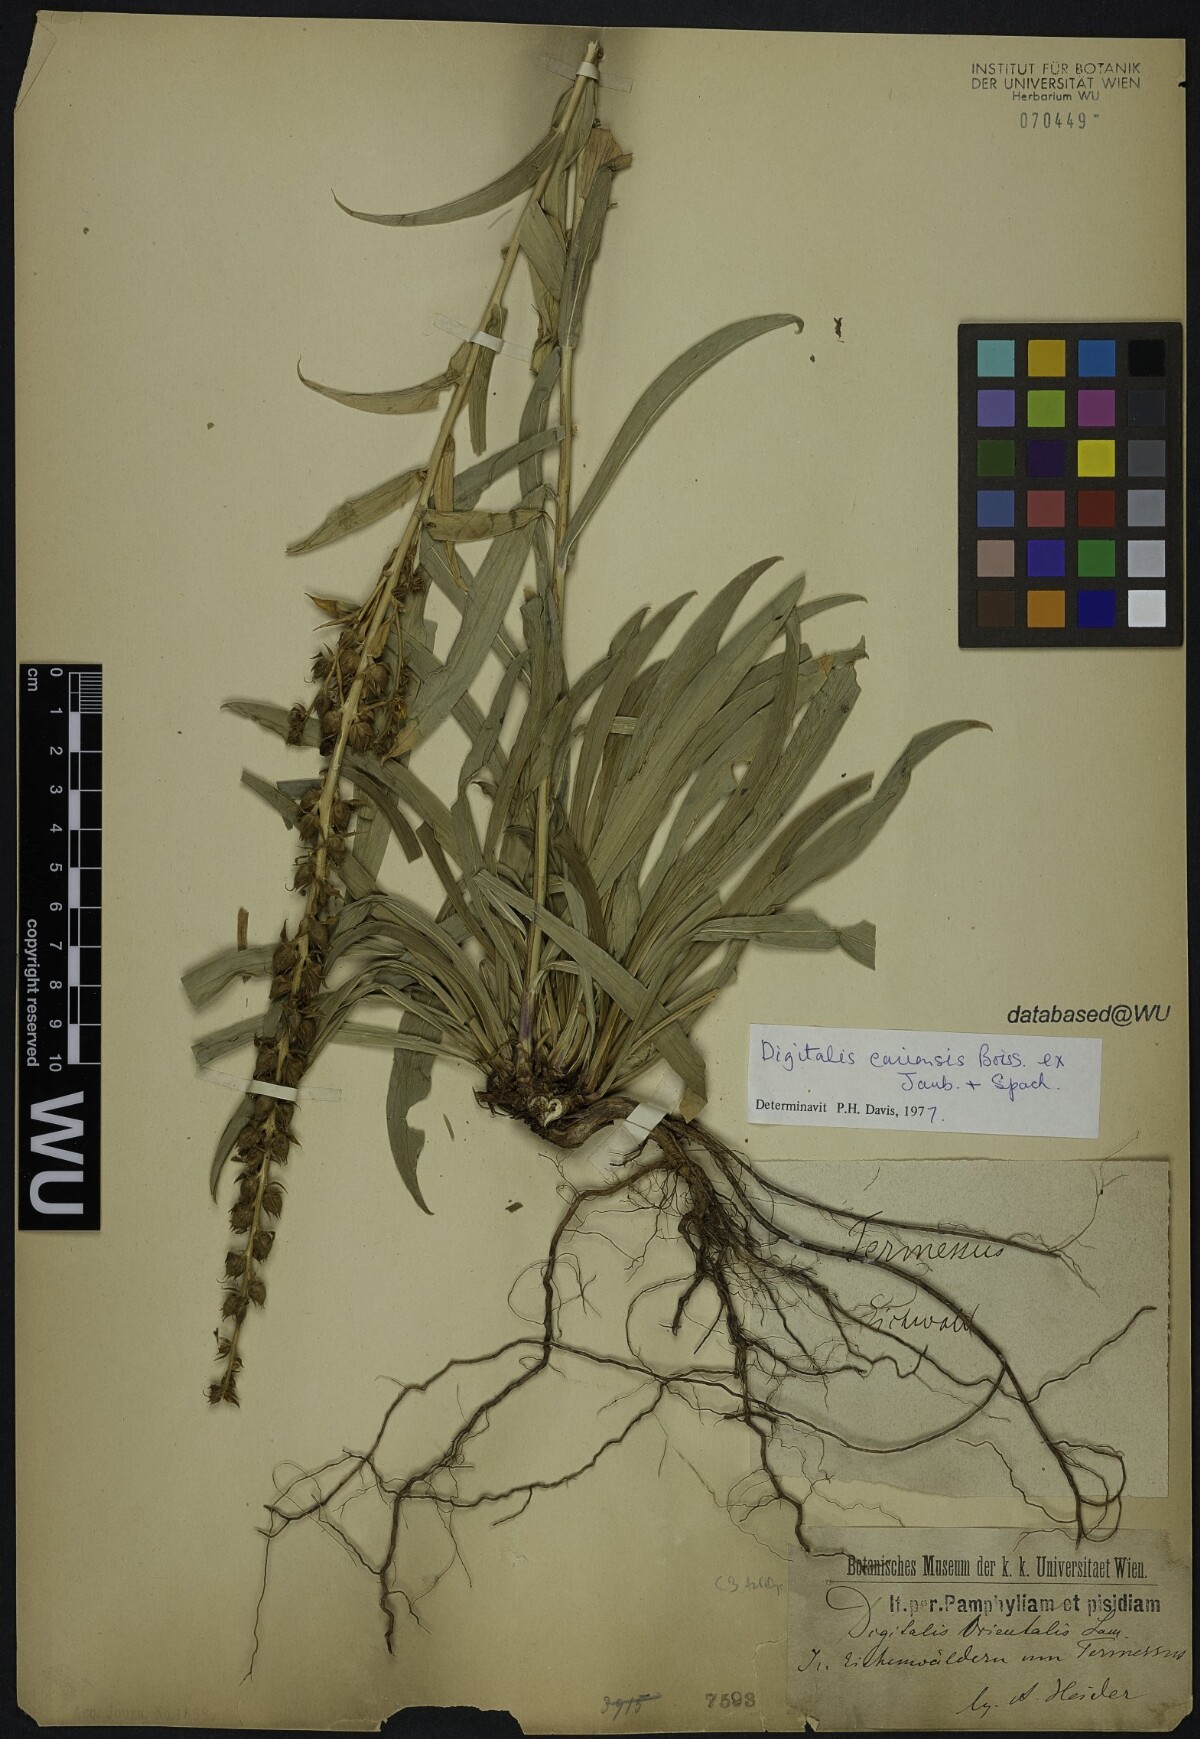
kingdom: Plantae
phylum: Tracheophyta
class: Magnoliopsida
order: Lamiales
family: Plantaginaceae
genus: Digitalis
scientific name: Digitalis cariensis
